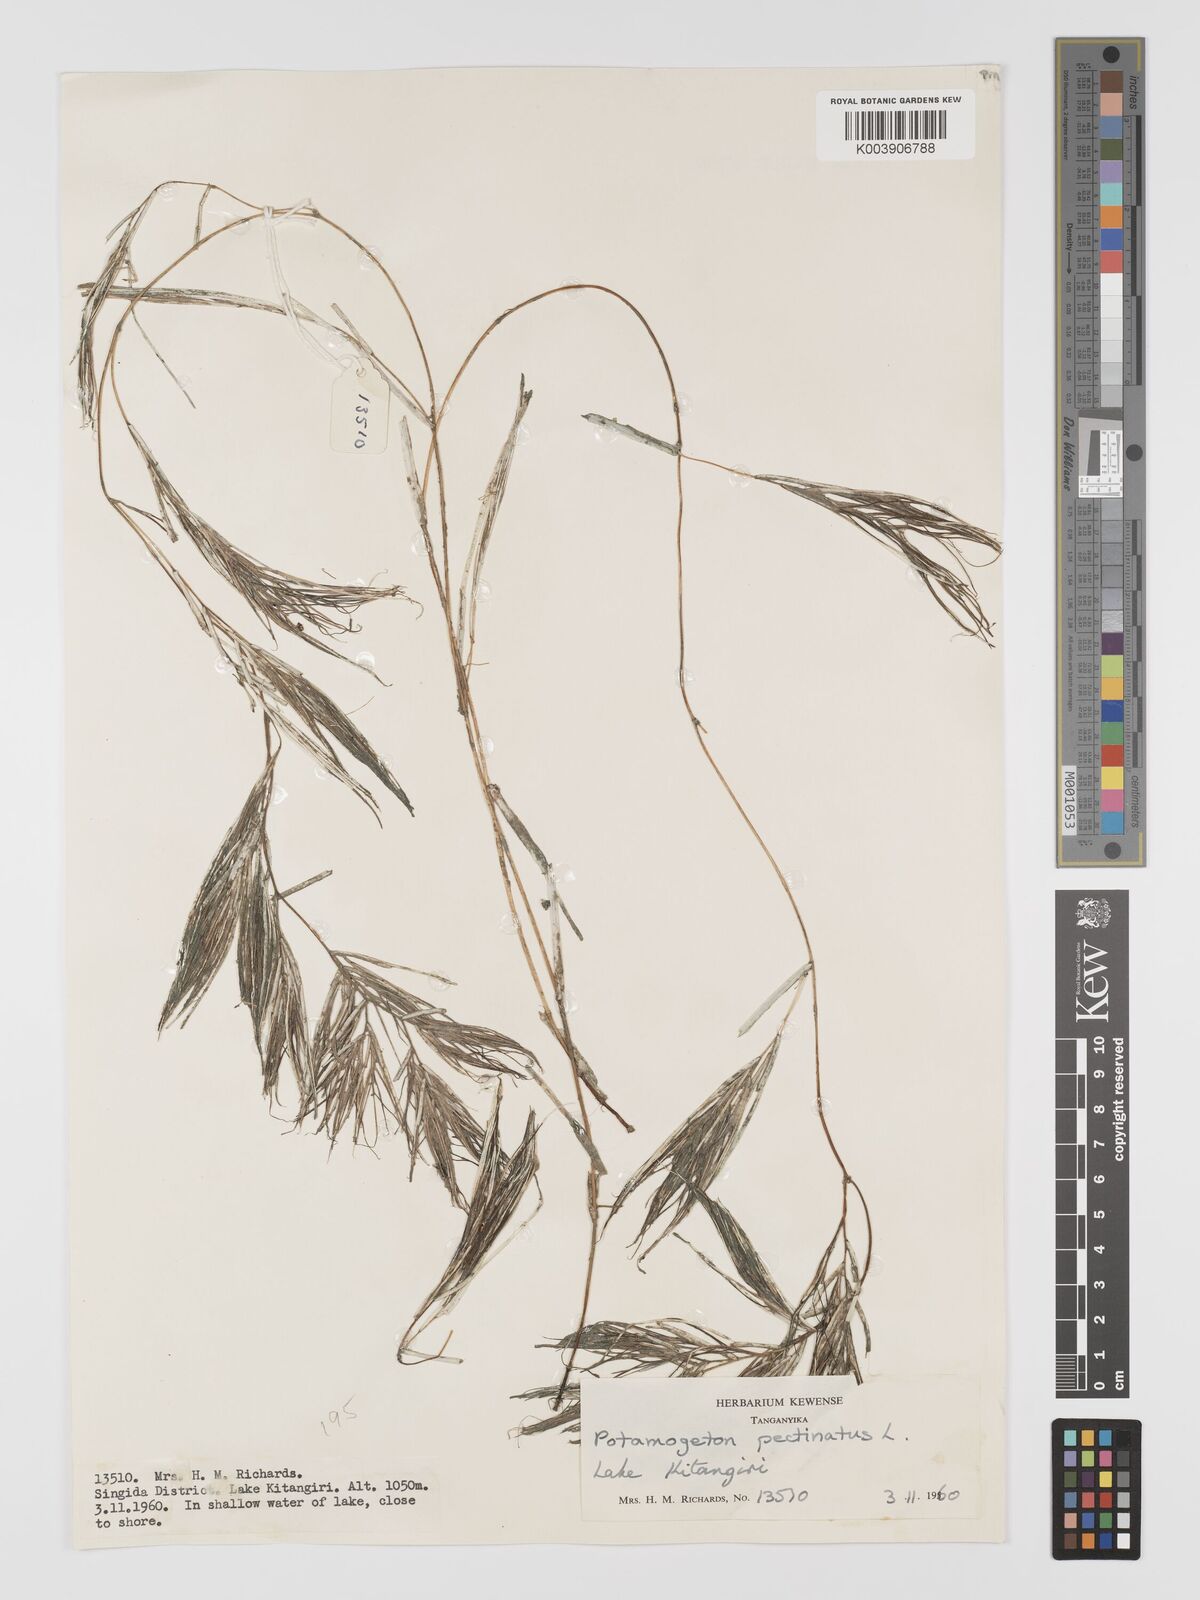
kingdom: Plantae
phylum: Tracheophyta
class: Liliopsida
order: Alismatales
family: Potamogetonaceae
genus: Stuckenia
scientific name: Stuckenia pectinata
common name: Sago pondweed
